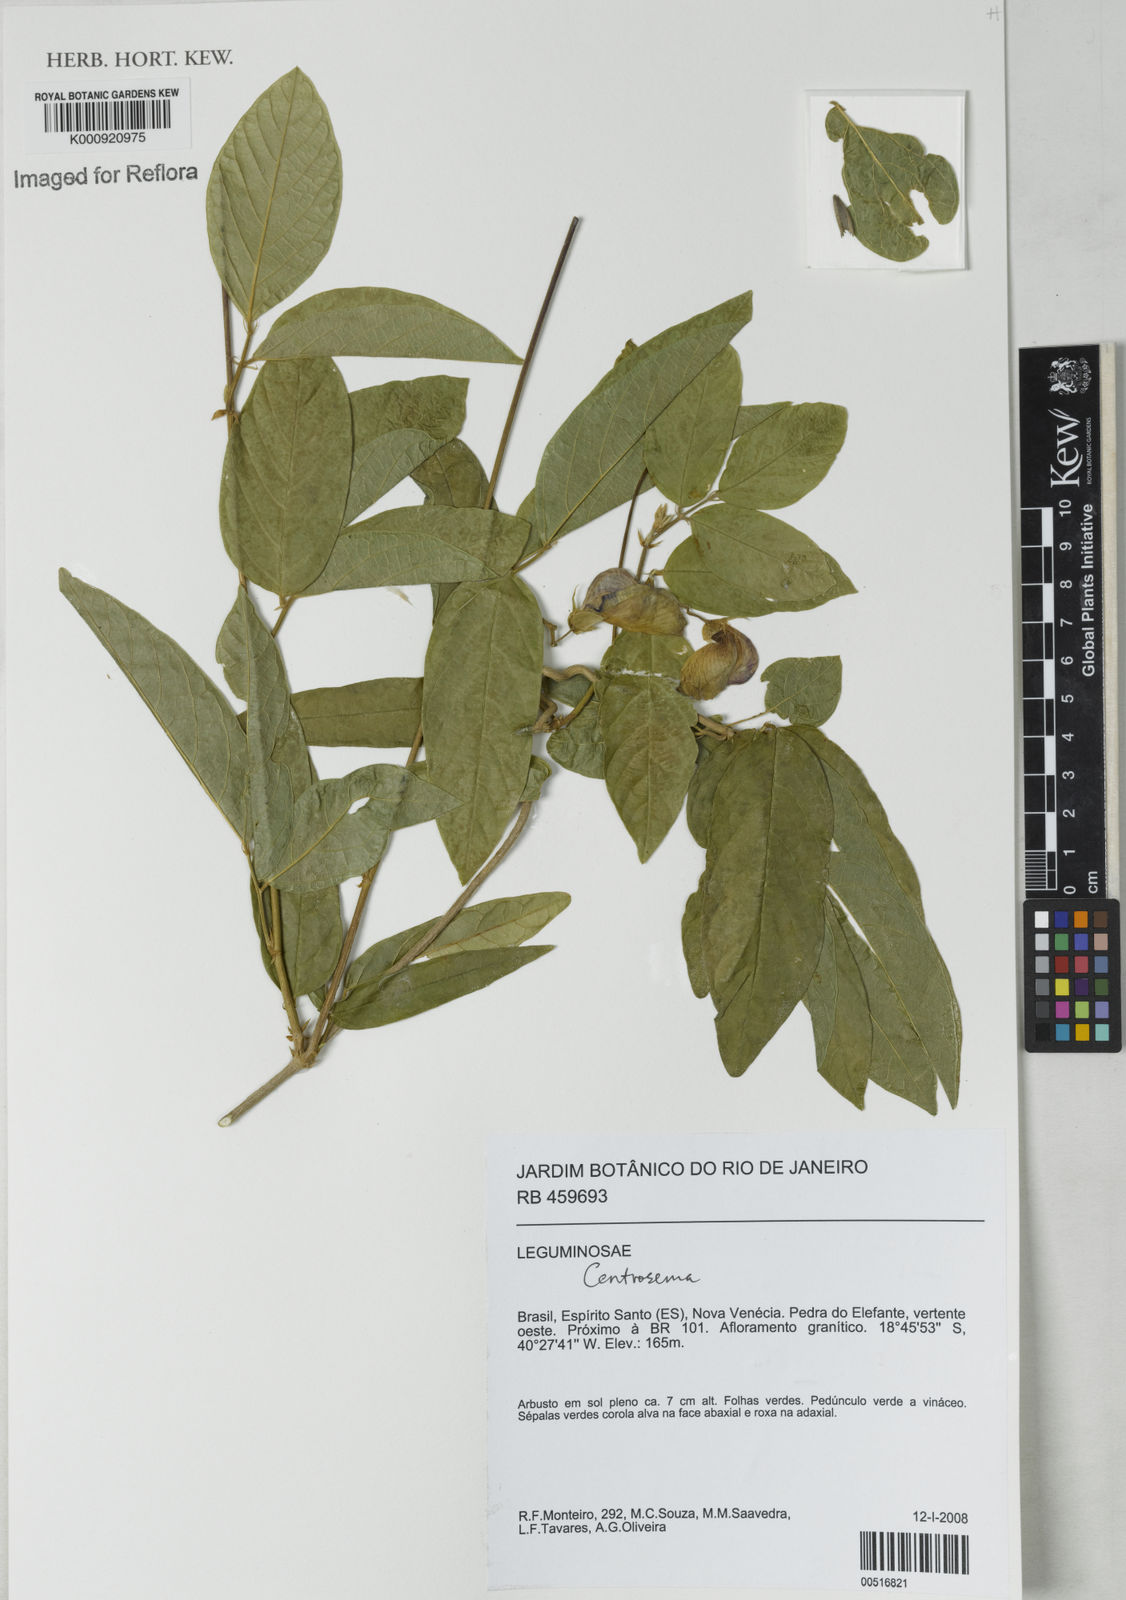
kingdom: Plantae
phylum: Tracheophyta
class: Magnoliopsida
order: Fabales
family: Fabaceae
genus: Centrosema
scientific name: Centrosema
